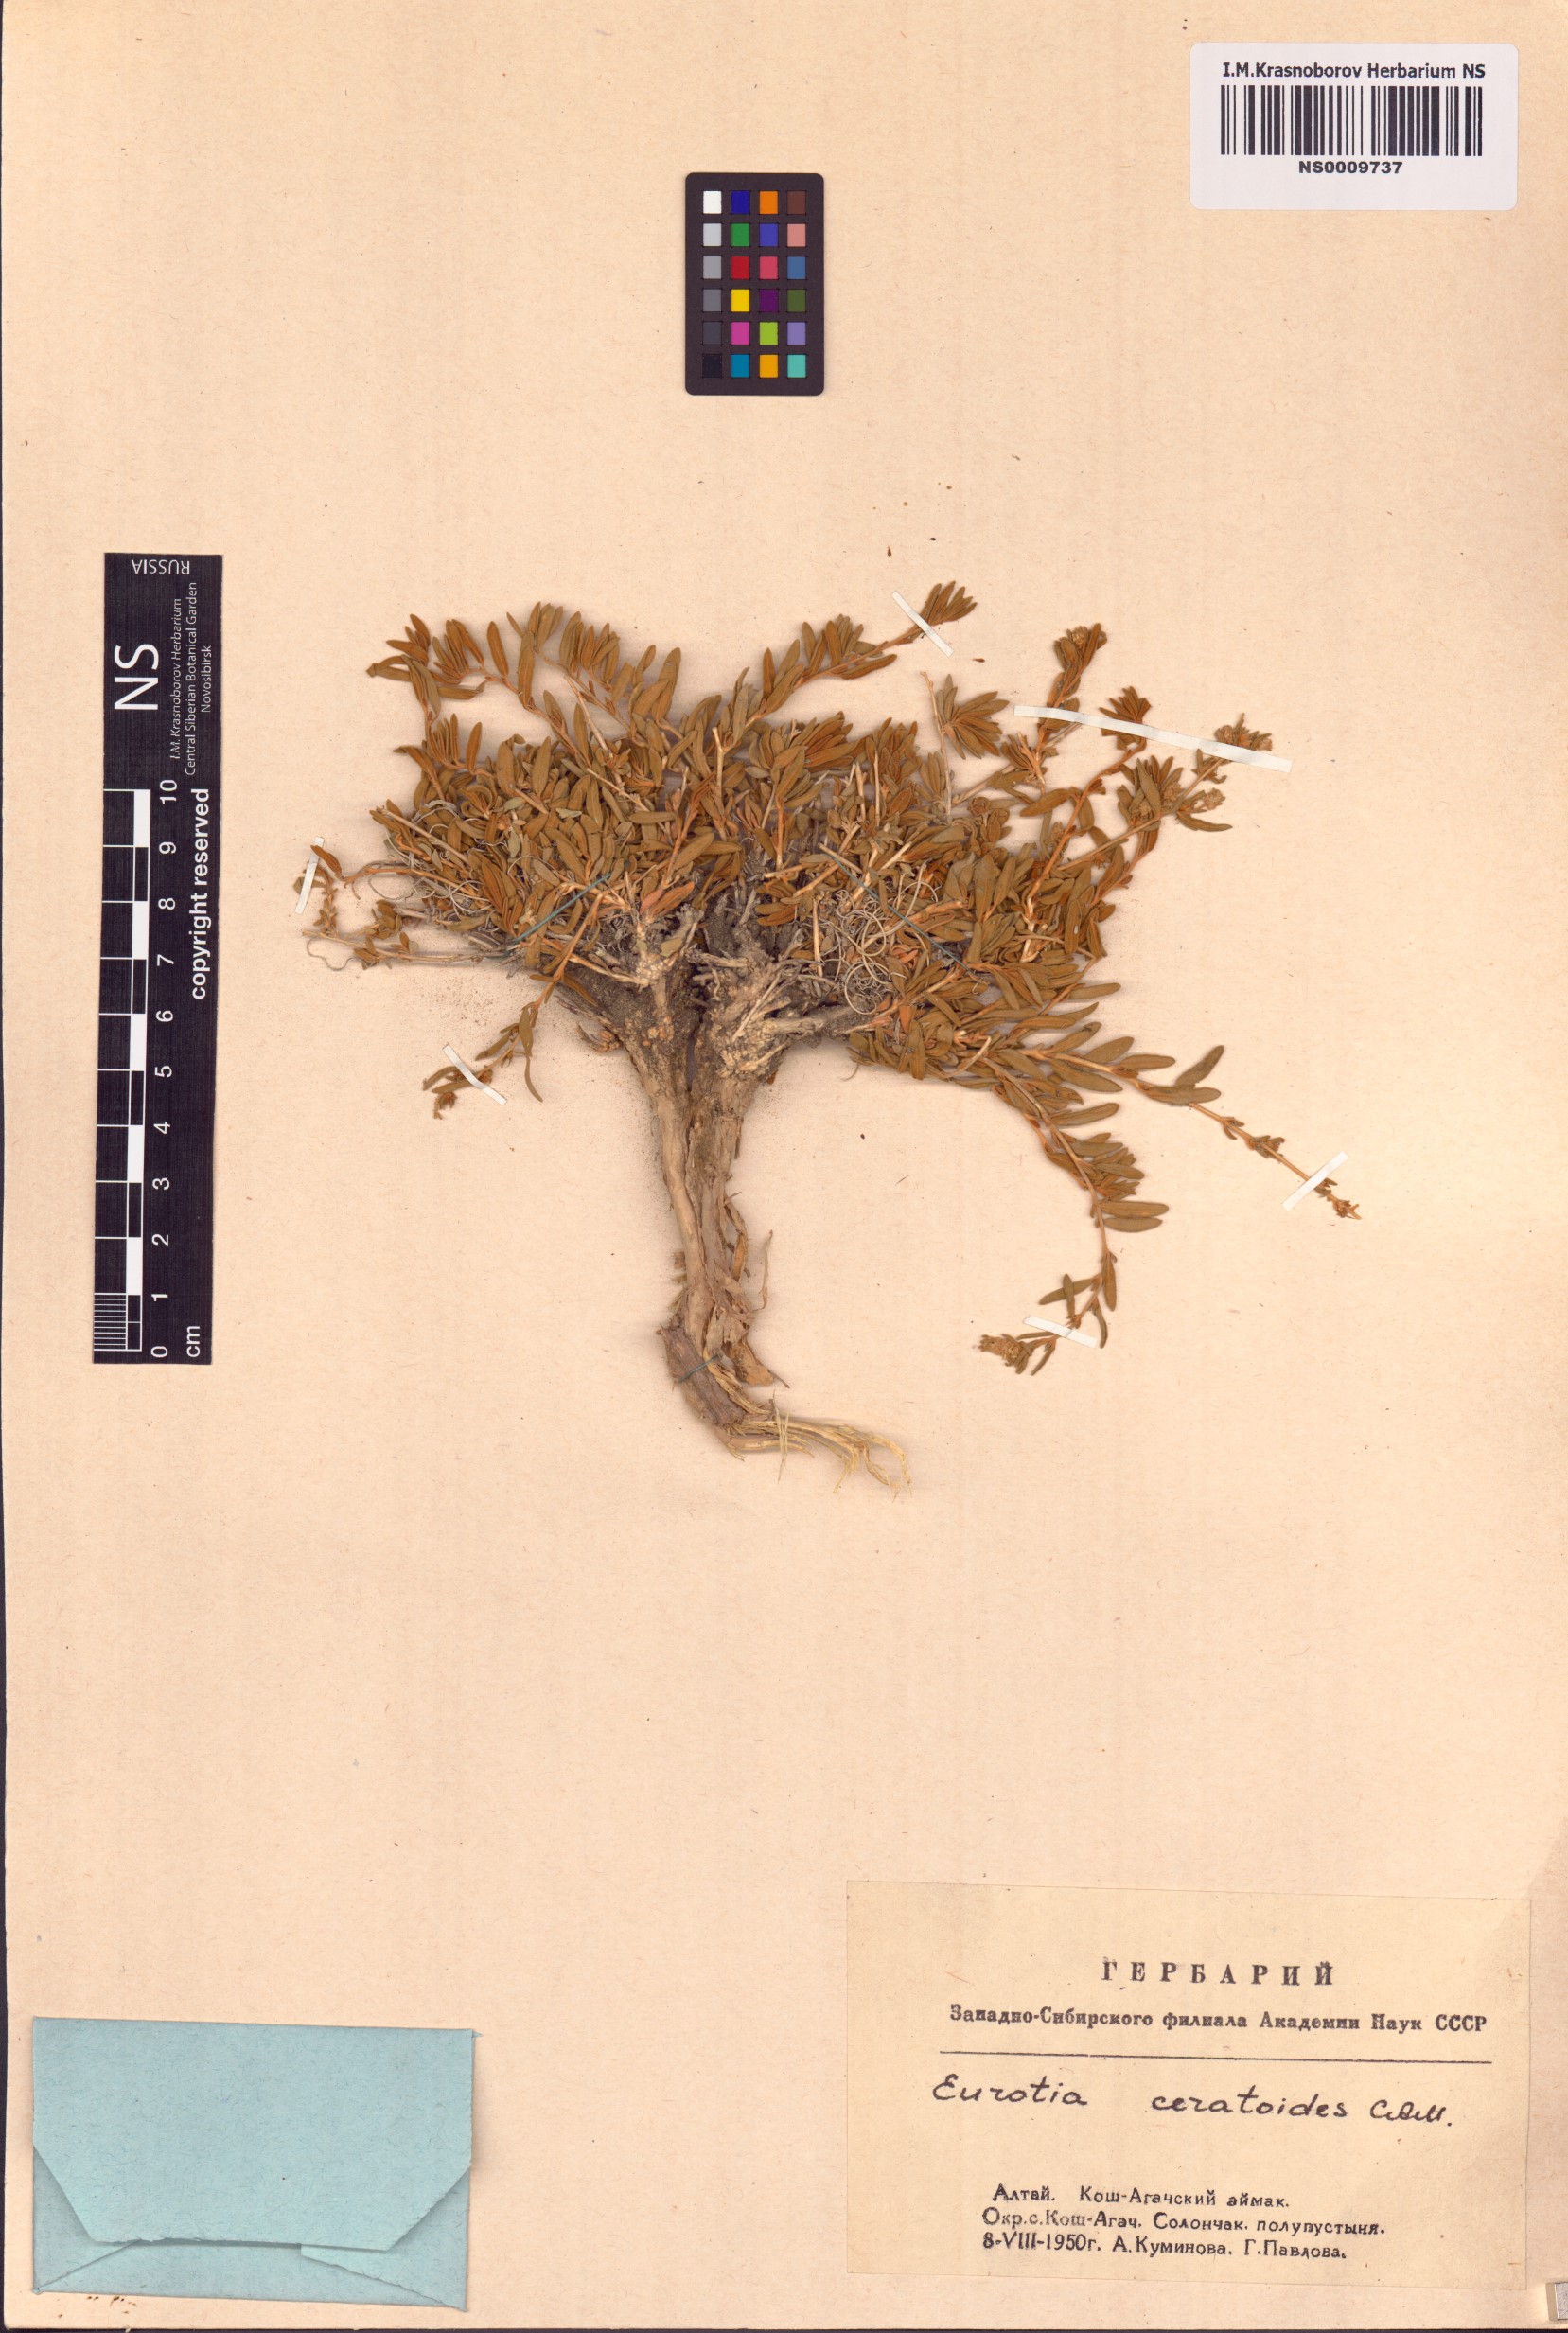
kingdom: Plantae
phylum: Tracheophyta
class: Magnoliopsida
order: Caryophyllales
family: Amaranthaceae
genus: Krascheninnikovia
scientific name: Krascheninnikovia ceratoides
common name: Pamirian winterfat
